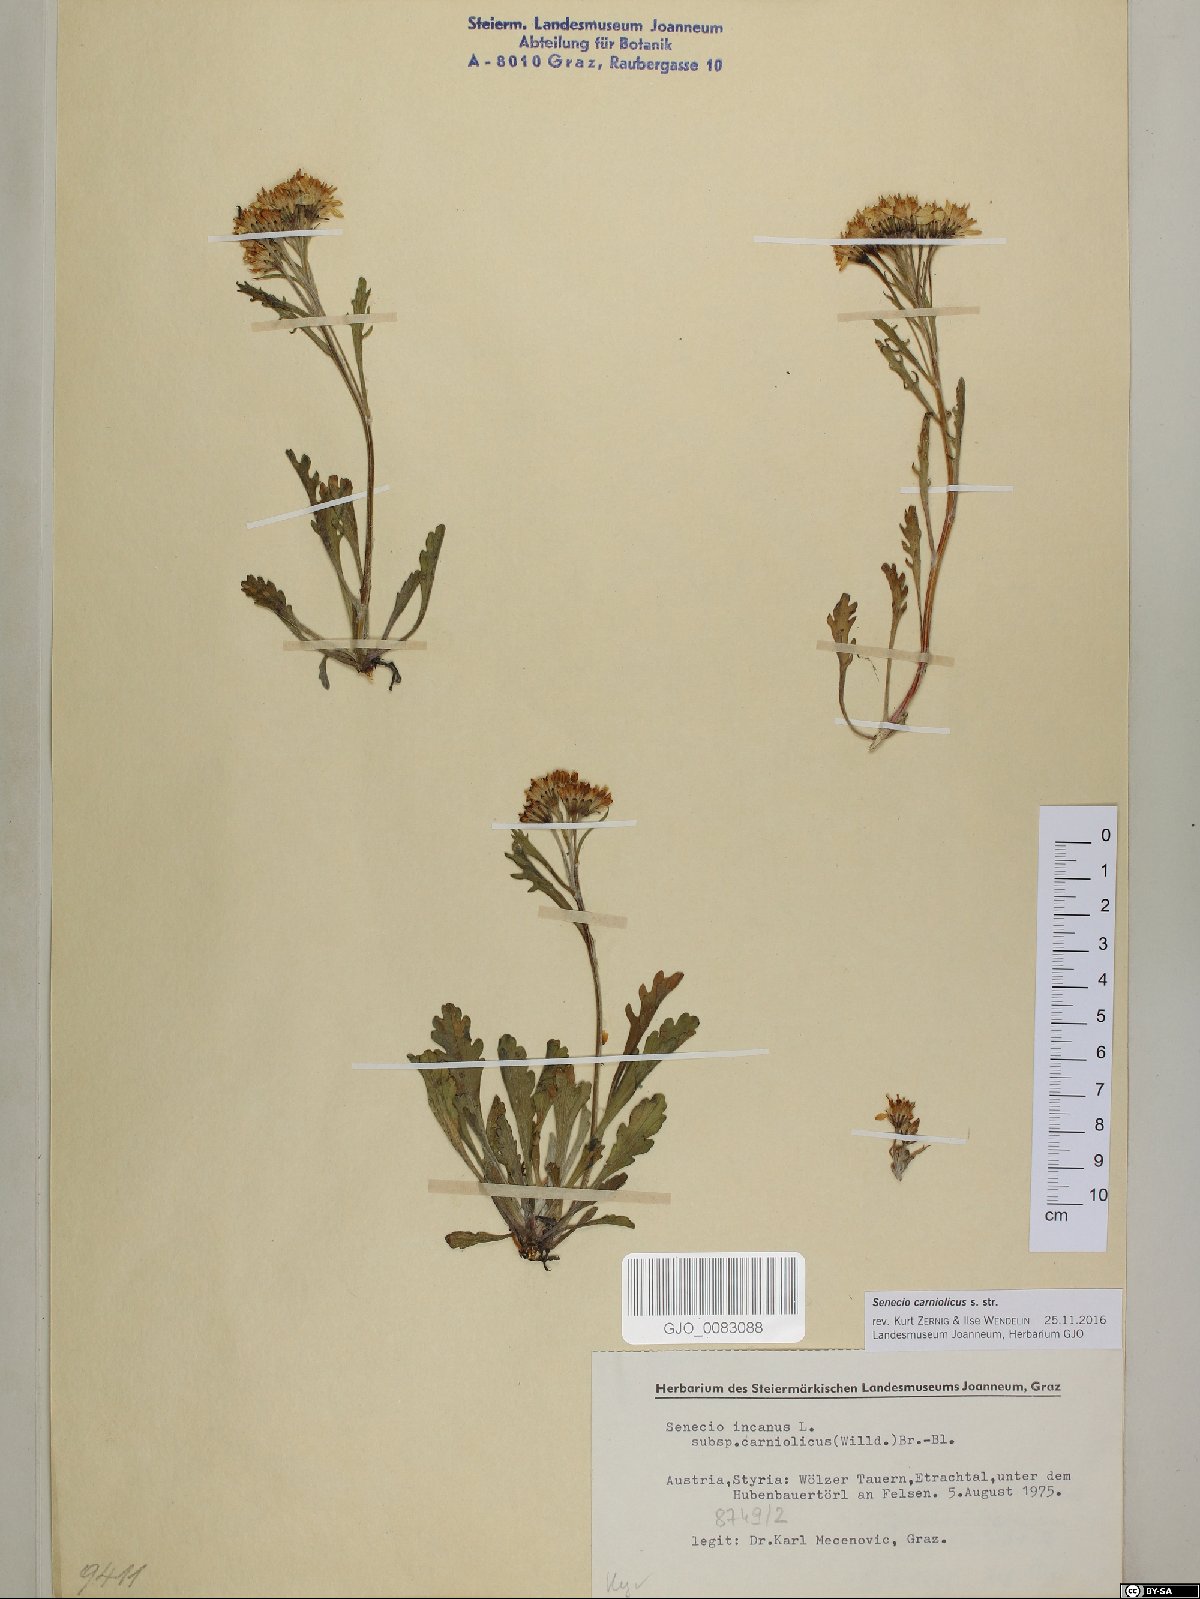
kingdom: Plantae
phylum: Tracheophyta
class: Magnoliopsida
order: Asterales
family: Asteraceae
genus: Jacobaea
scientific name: Jacobaea carniolica
